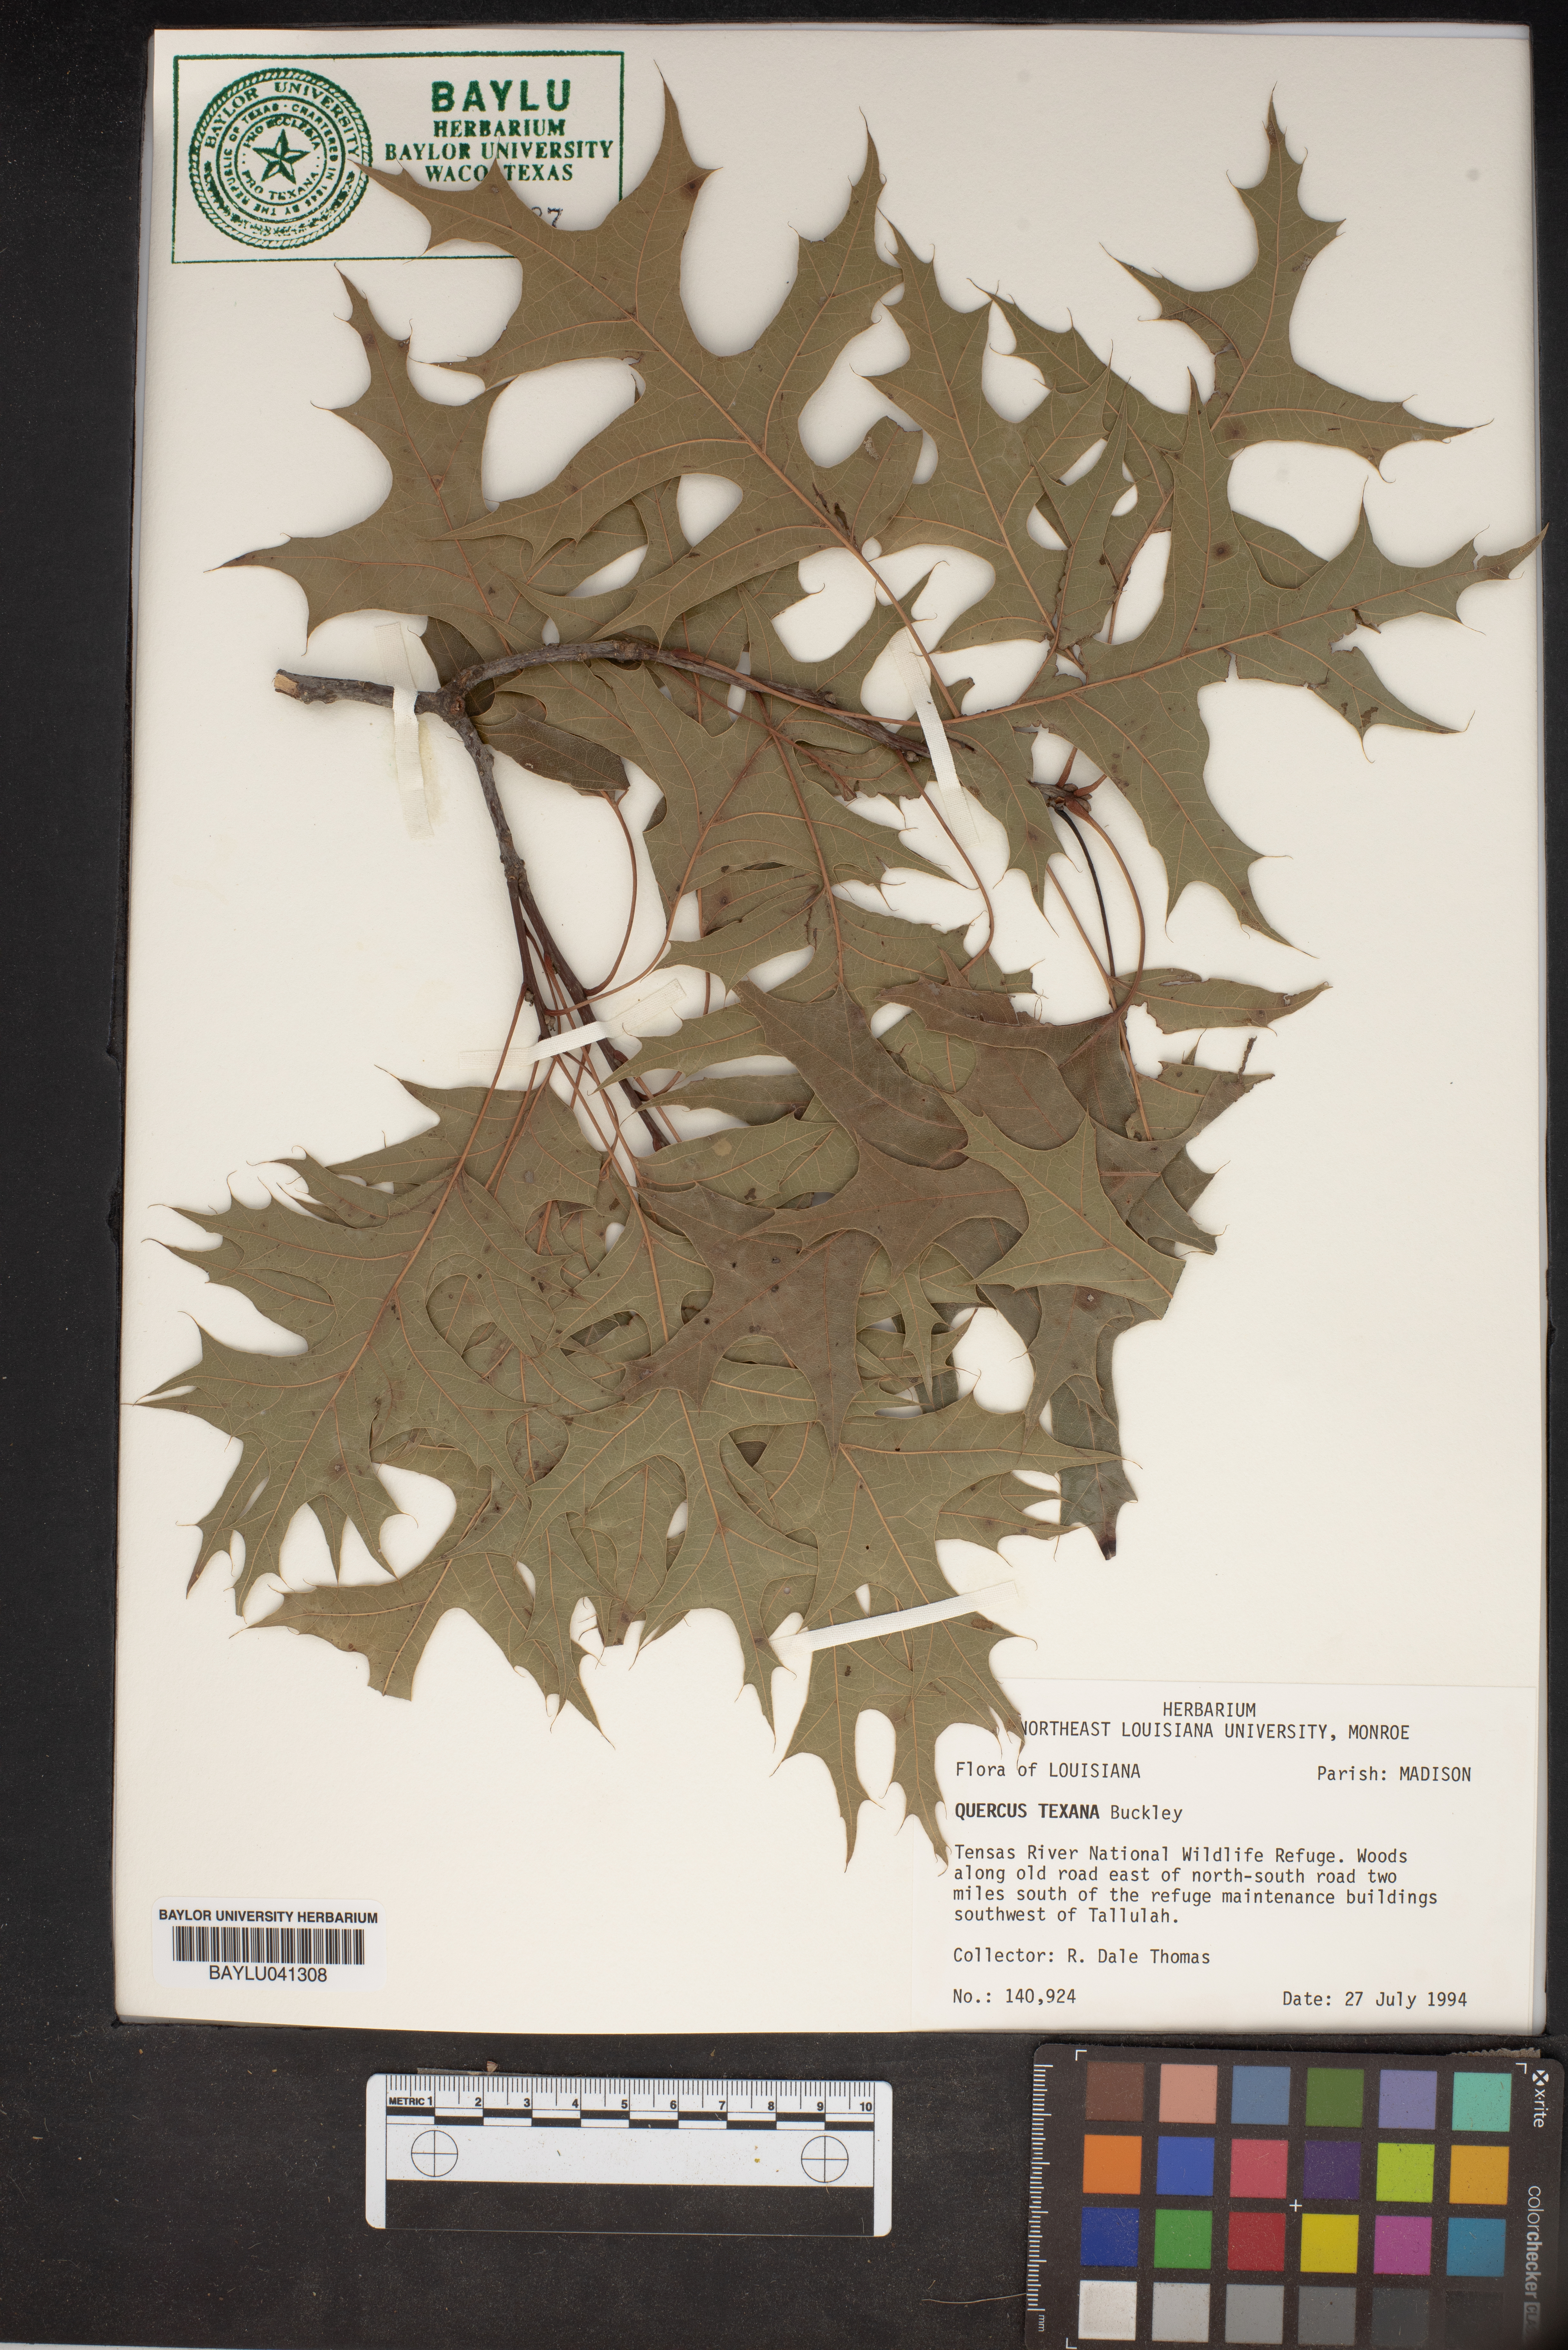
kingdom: Plantae
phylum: Tracheophyta
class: Magnoliopsida
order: Fagales
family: Fagaceae
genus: Quercus
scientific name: Quercus texana
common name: Nuttall oak
